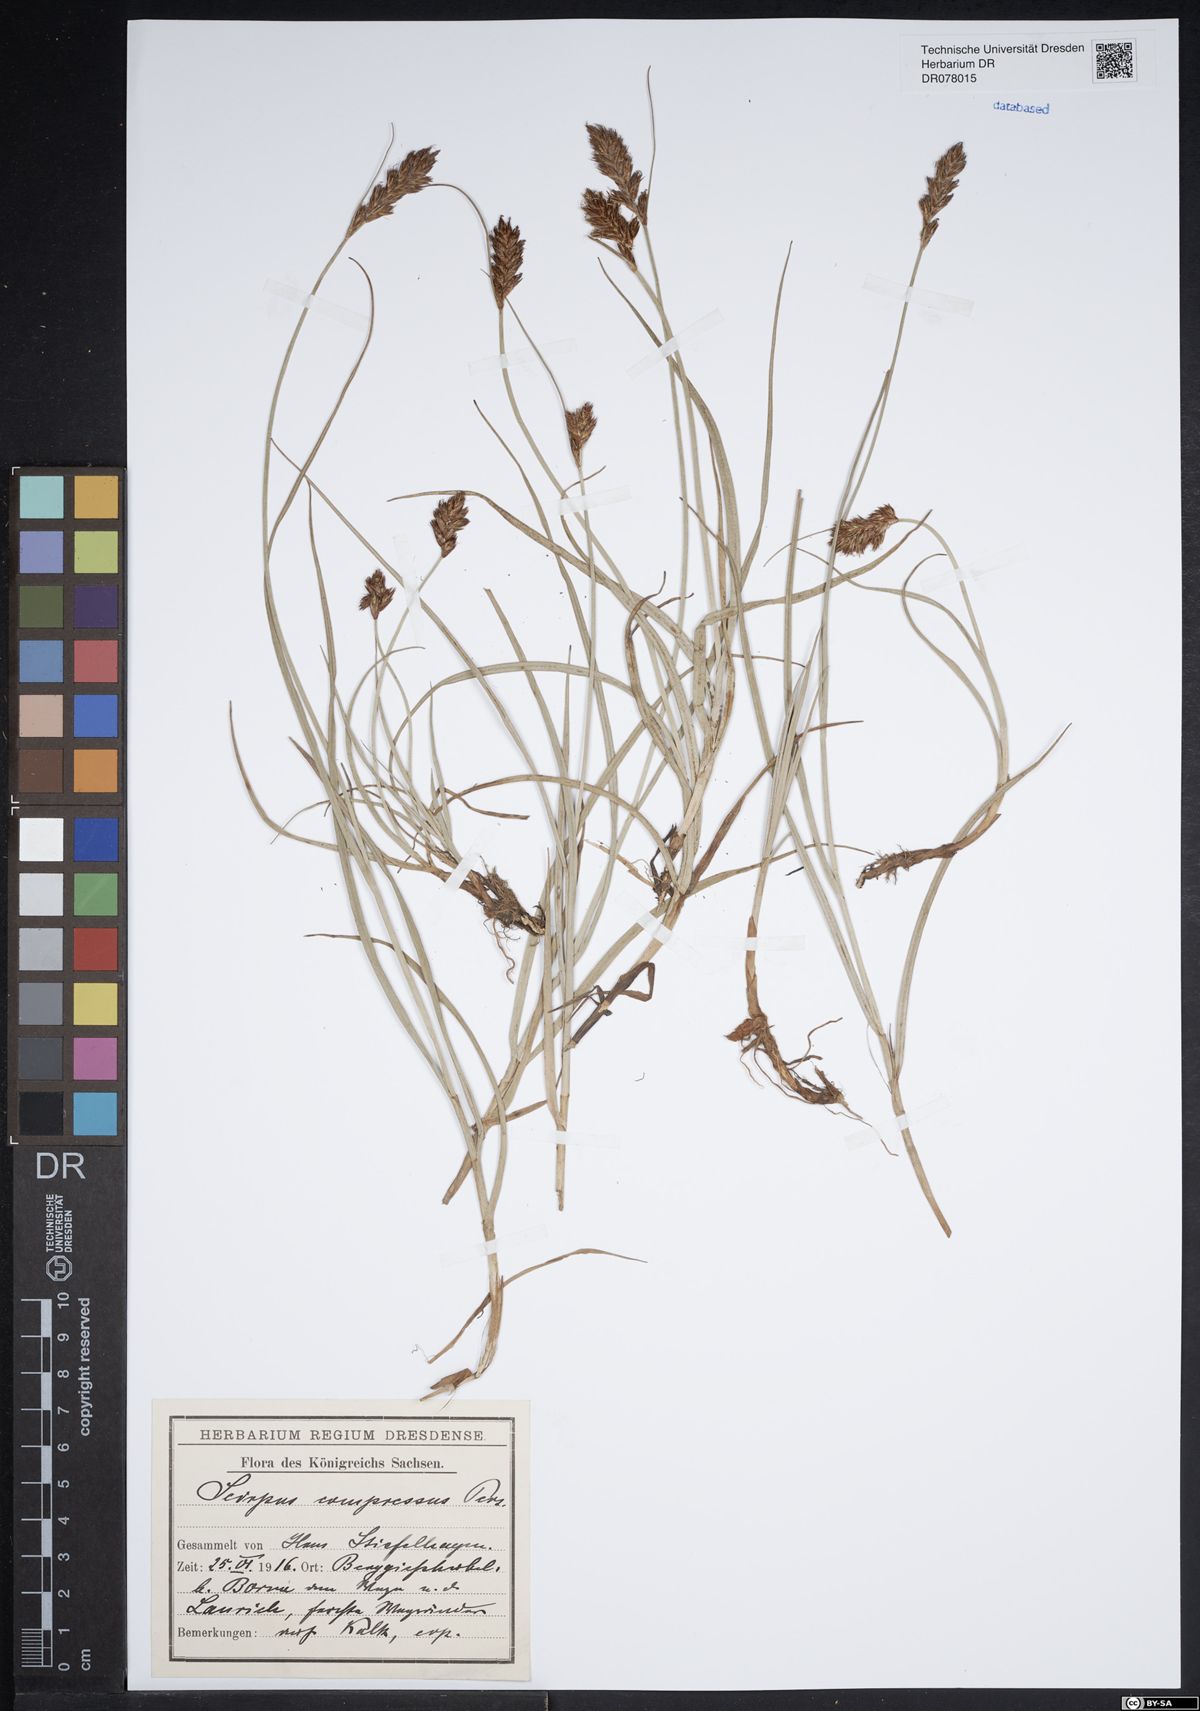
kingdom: Plantae
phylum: Tracheophyta
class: Liliopsida
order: Poales
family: Cyperaceae
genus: Blysmus
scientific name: Blysmus compressus
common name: Flat-sedge
